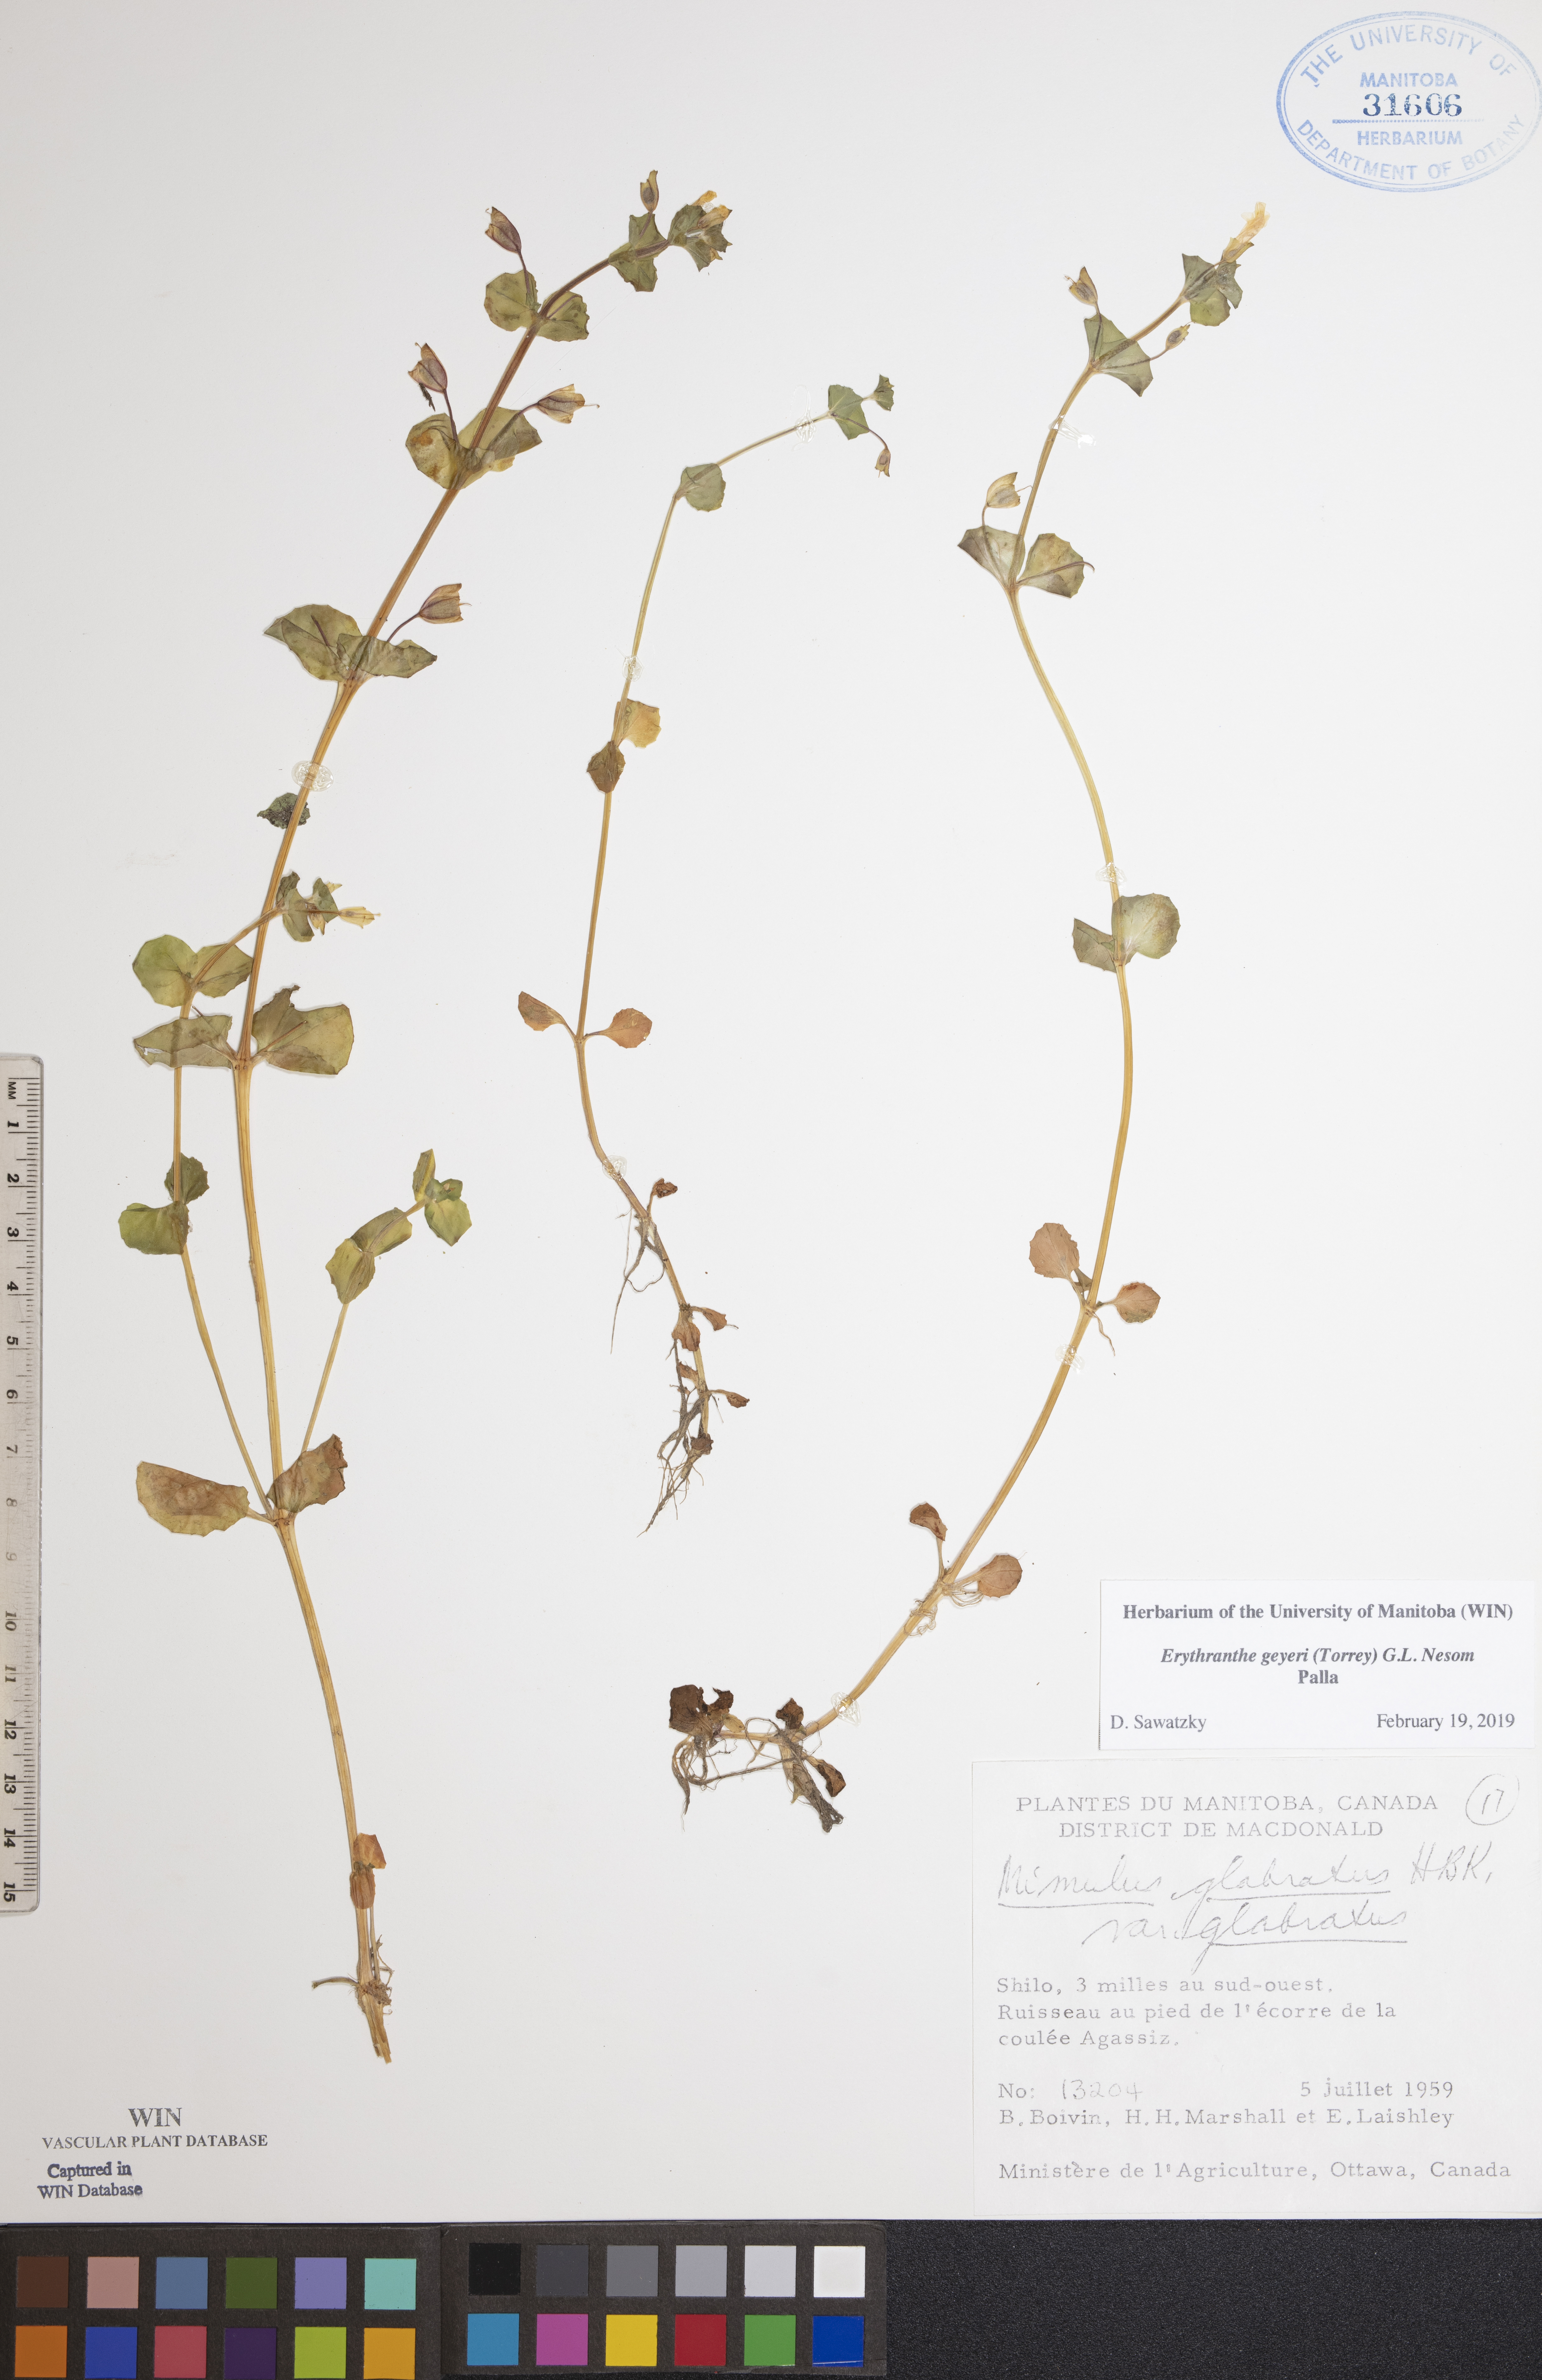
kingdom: Plantae
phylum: Tracheophyta
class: Magnoliopsida
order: Lamiales
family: Phrymaceae
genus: Erythranthe
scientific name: Erythranthe geyeri
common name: Geyer's monkeyflower
